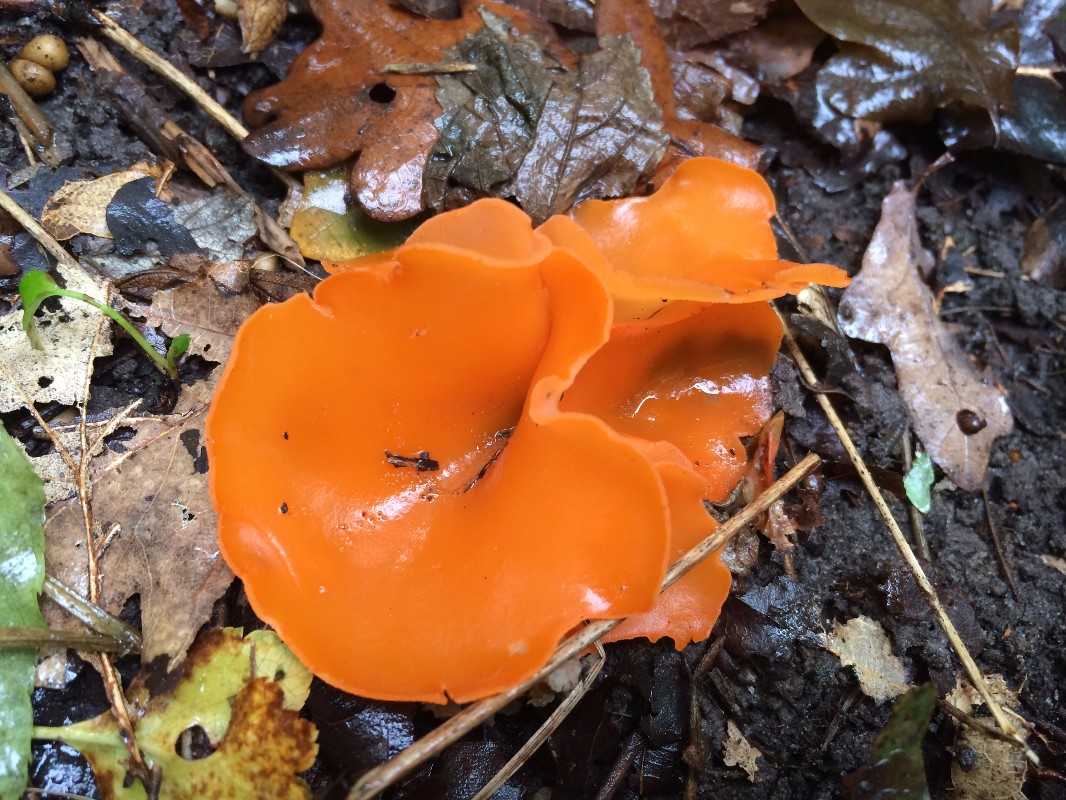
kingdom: Fungi
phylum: Ascomycota
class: Pezizomycetes
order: Pezizales
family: Pyronemataceae
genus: Aleuria
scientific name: Aleuria aurantia
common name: almindelig orangebæger
